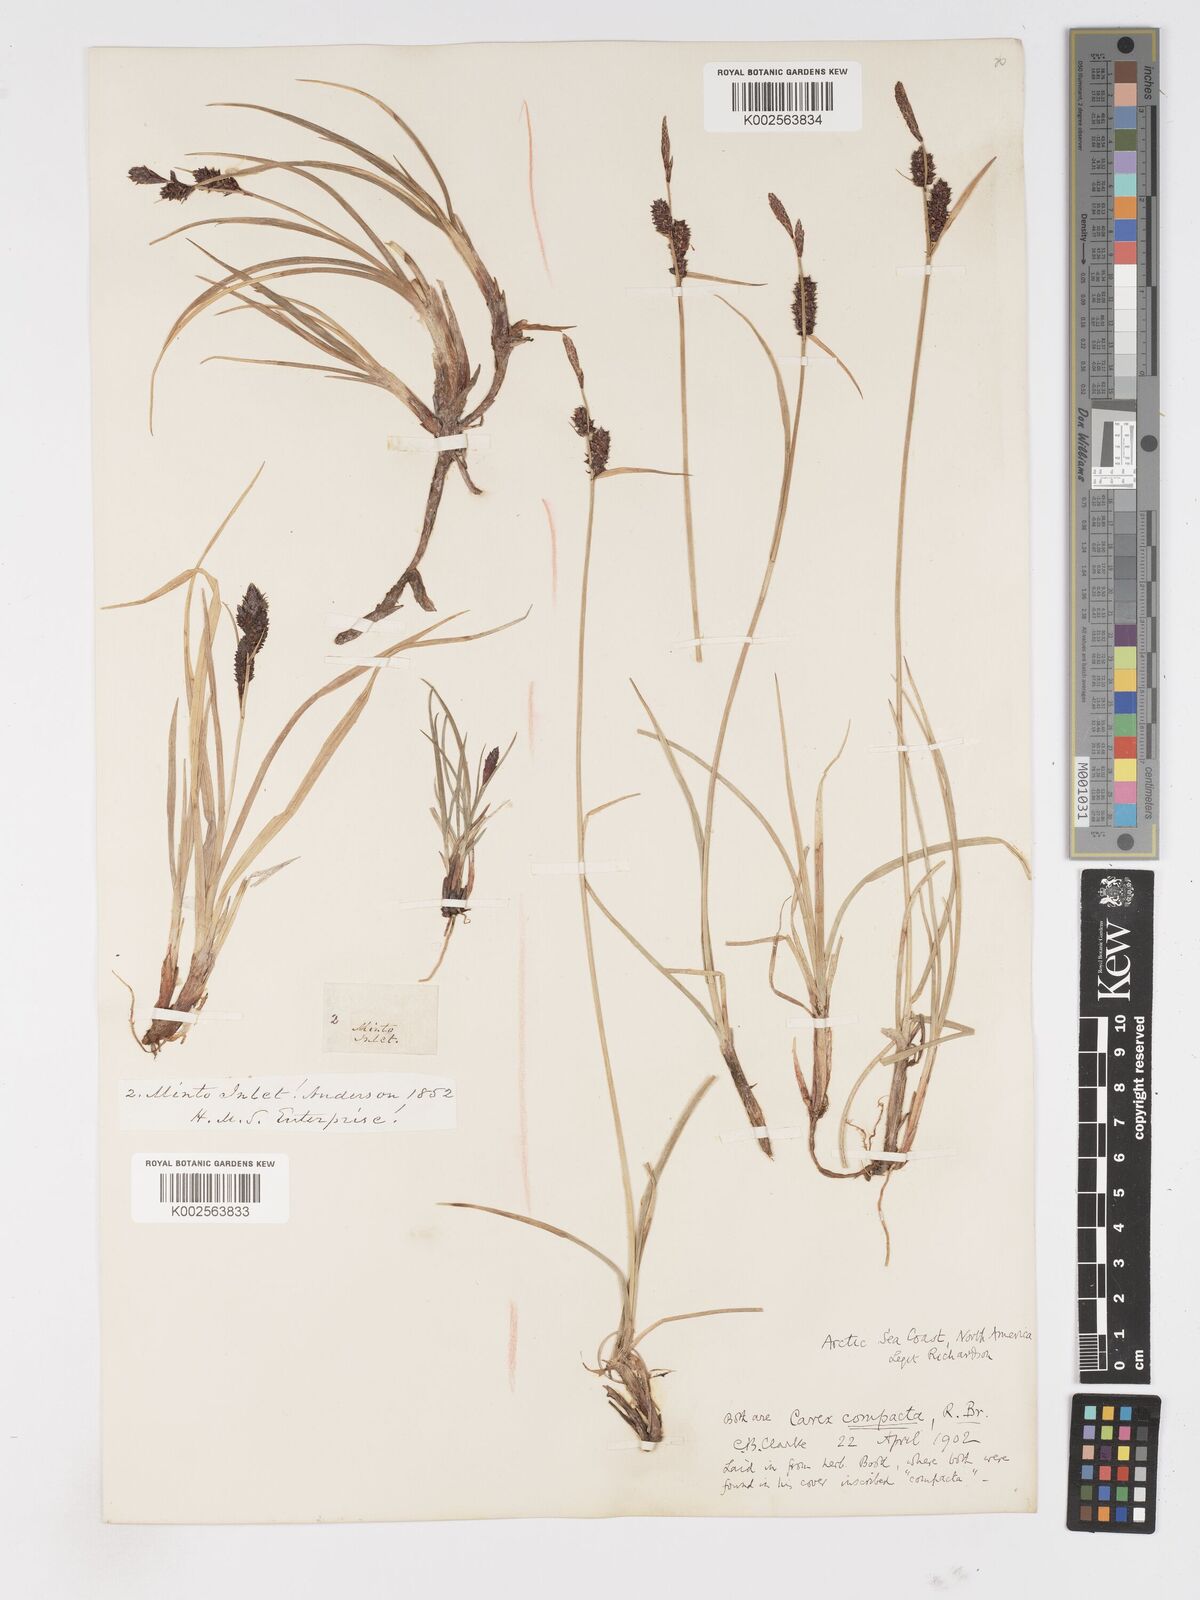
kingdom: Plantae
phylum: Tracheophyta
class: Liliopsida
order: Poales
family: Cyperaceae
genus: Carex
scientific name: Carex membranacea
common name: Fragile sedge
